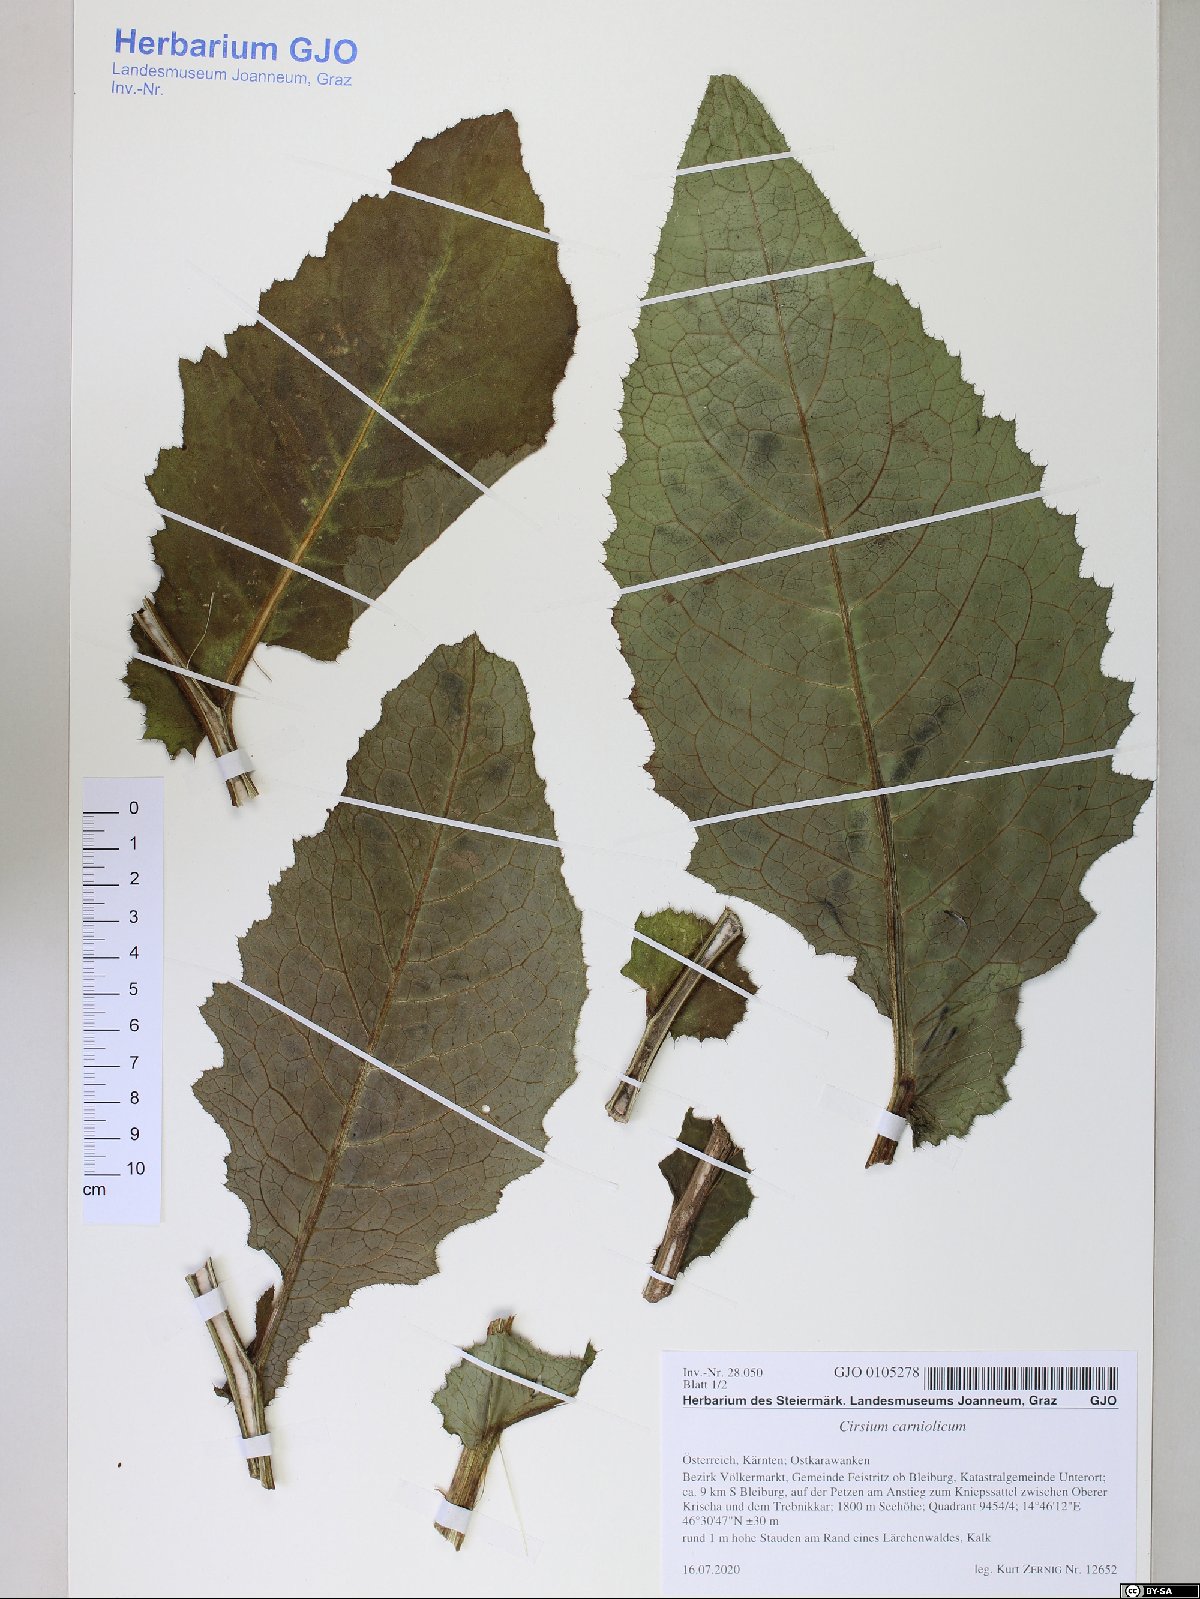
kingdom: Plantae
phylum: Tracheophyta
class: Magnoliopsida
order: Asterales
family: Asteraceae
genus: Cirsium
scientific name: Cirsium carniolicum
